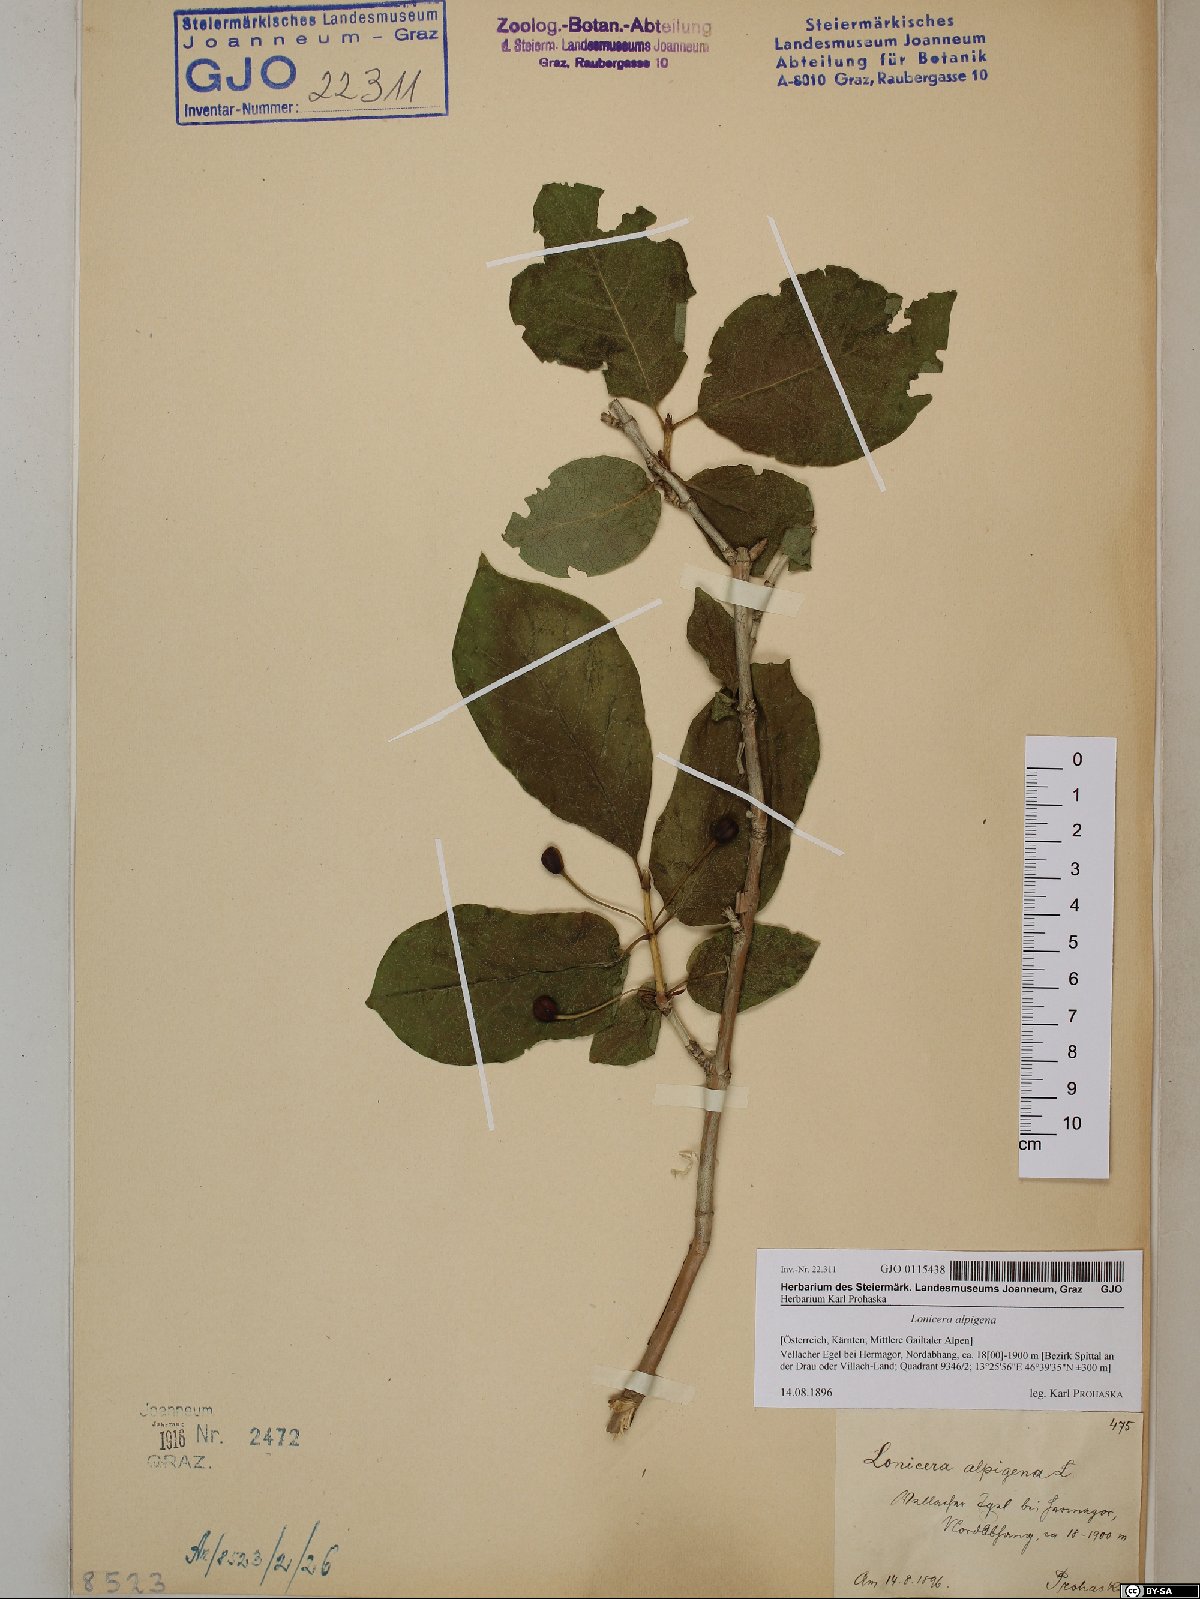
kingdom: Plantae
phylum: Tracheophyta
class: Magnoliopsida
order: Dipsacales
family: Caprifoliaceae
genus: Lonicera
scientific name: Lonicera alpigena
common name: Alpine honeysuckle
